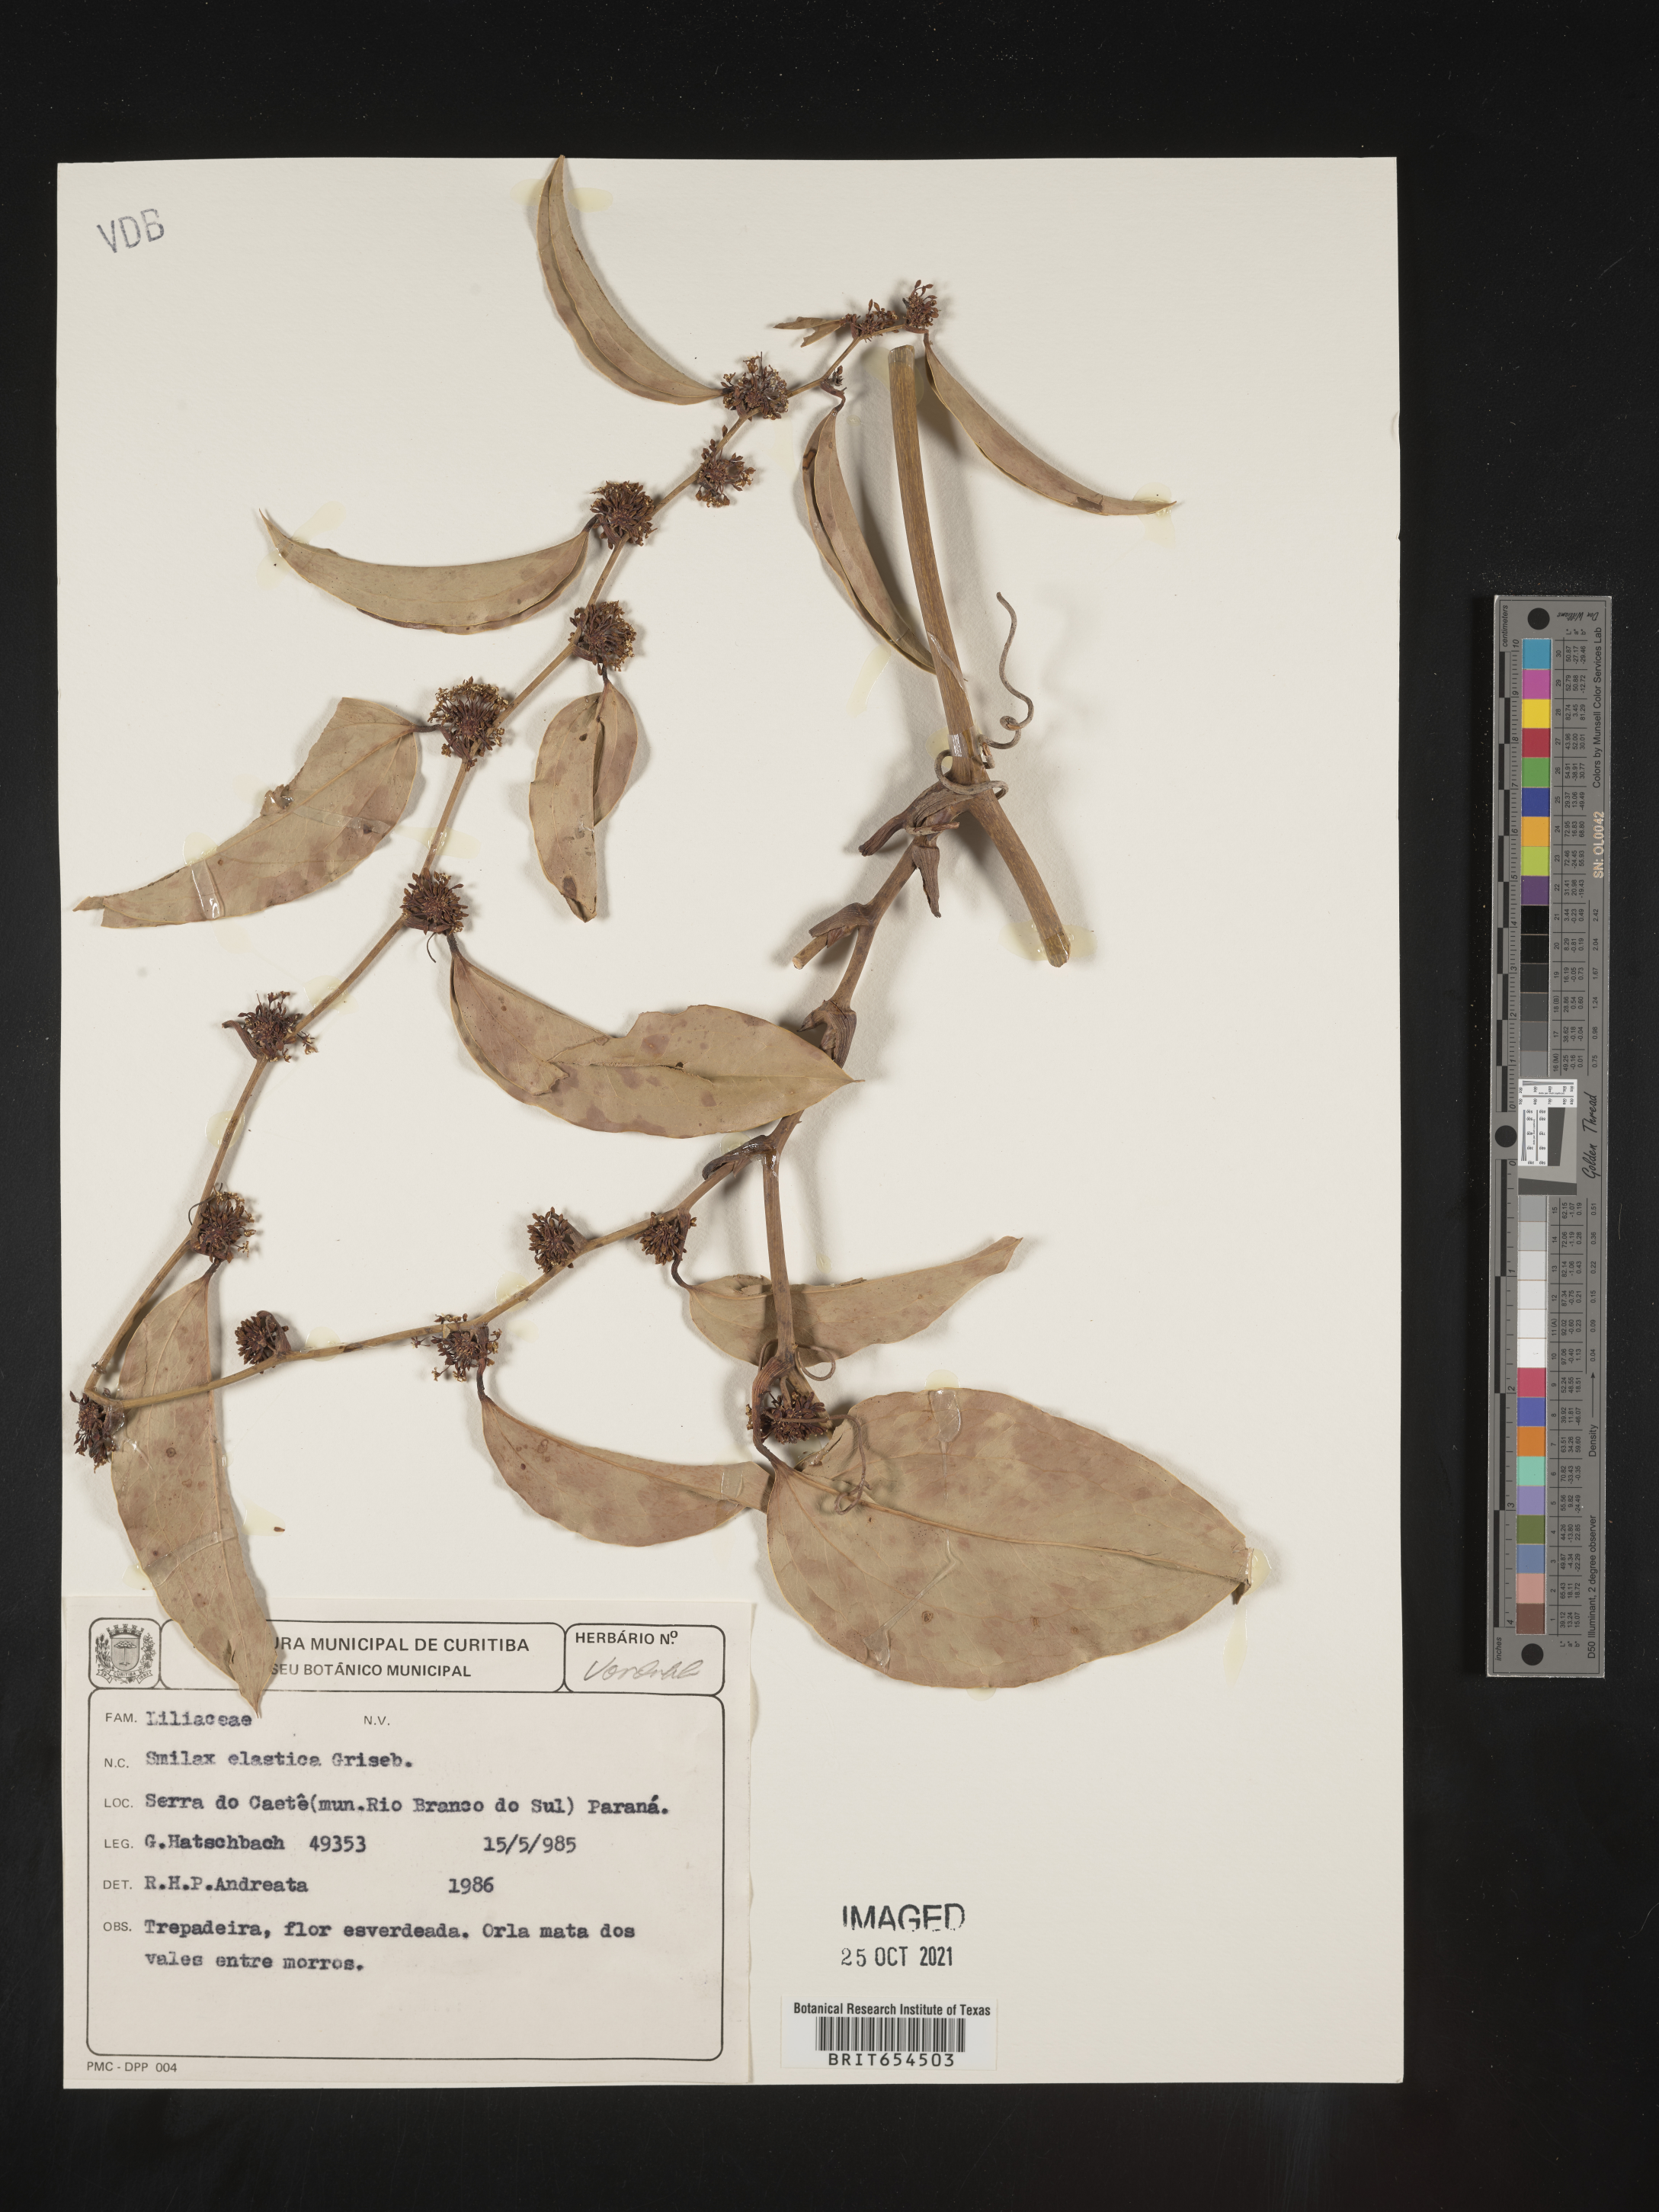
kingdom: Plantae
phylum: Tracheophyta
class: Liliopsida
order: Liliales
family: Smilacaceae
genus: Smilax
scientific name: Smilax
